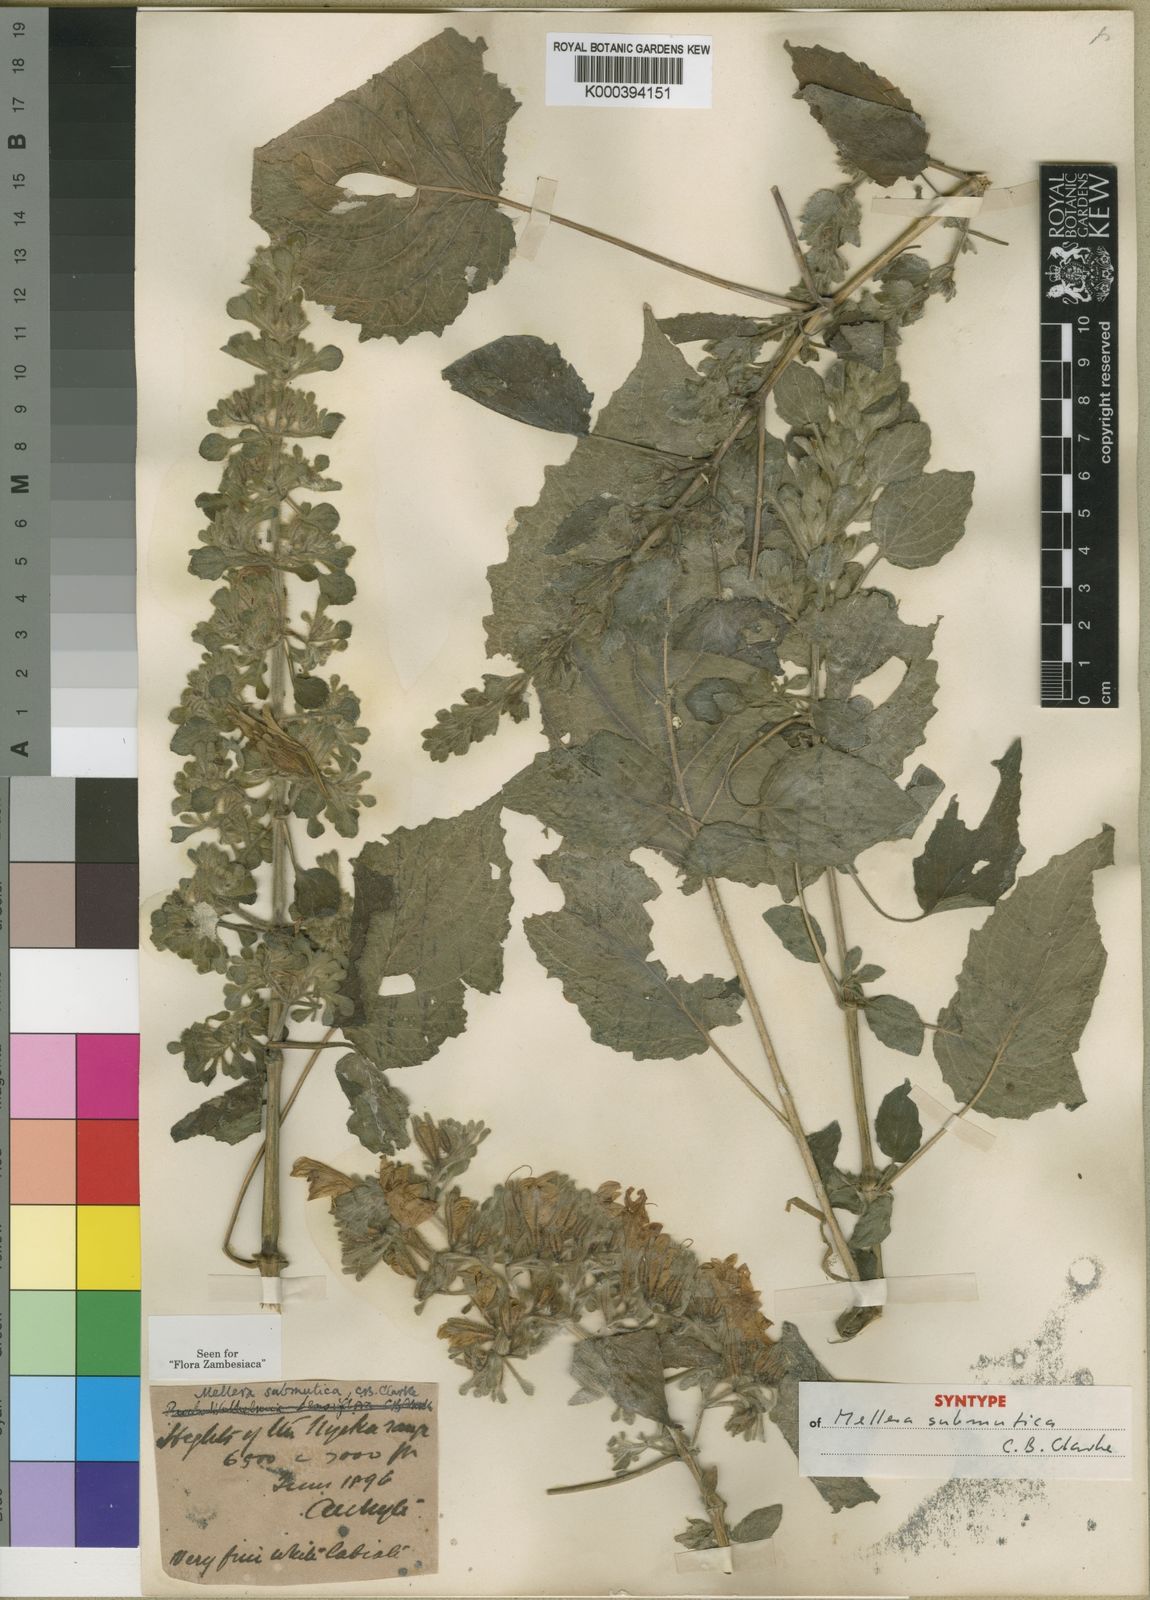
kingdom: Plantae
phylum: Tracheophyta
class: Magnoliopsida
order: Lamiales
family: Acanthaceae
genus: Mellera
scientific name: Mellera submutica
